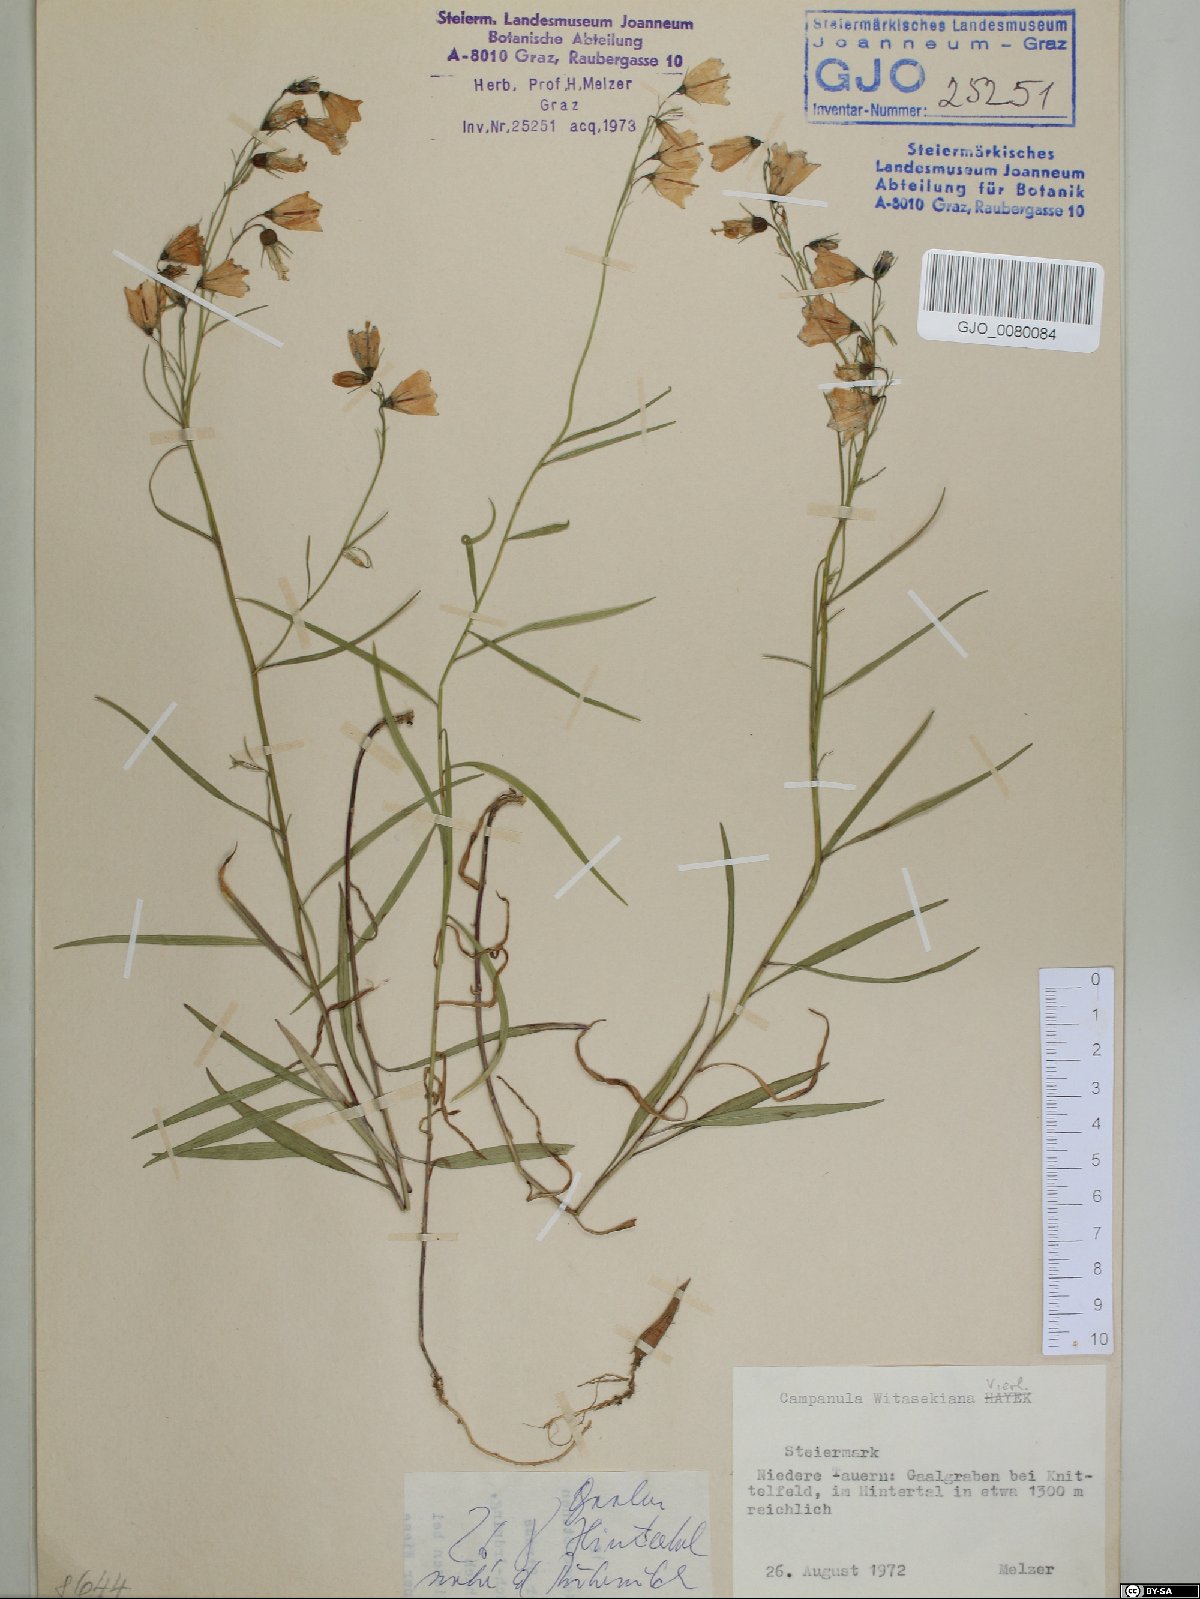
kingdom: Plantae
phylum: Tracheophyta
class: Magnoliopsida
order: Asterales
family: Campanulaceae
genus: Campanula
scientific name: Campanula witasekiana
